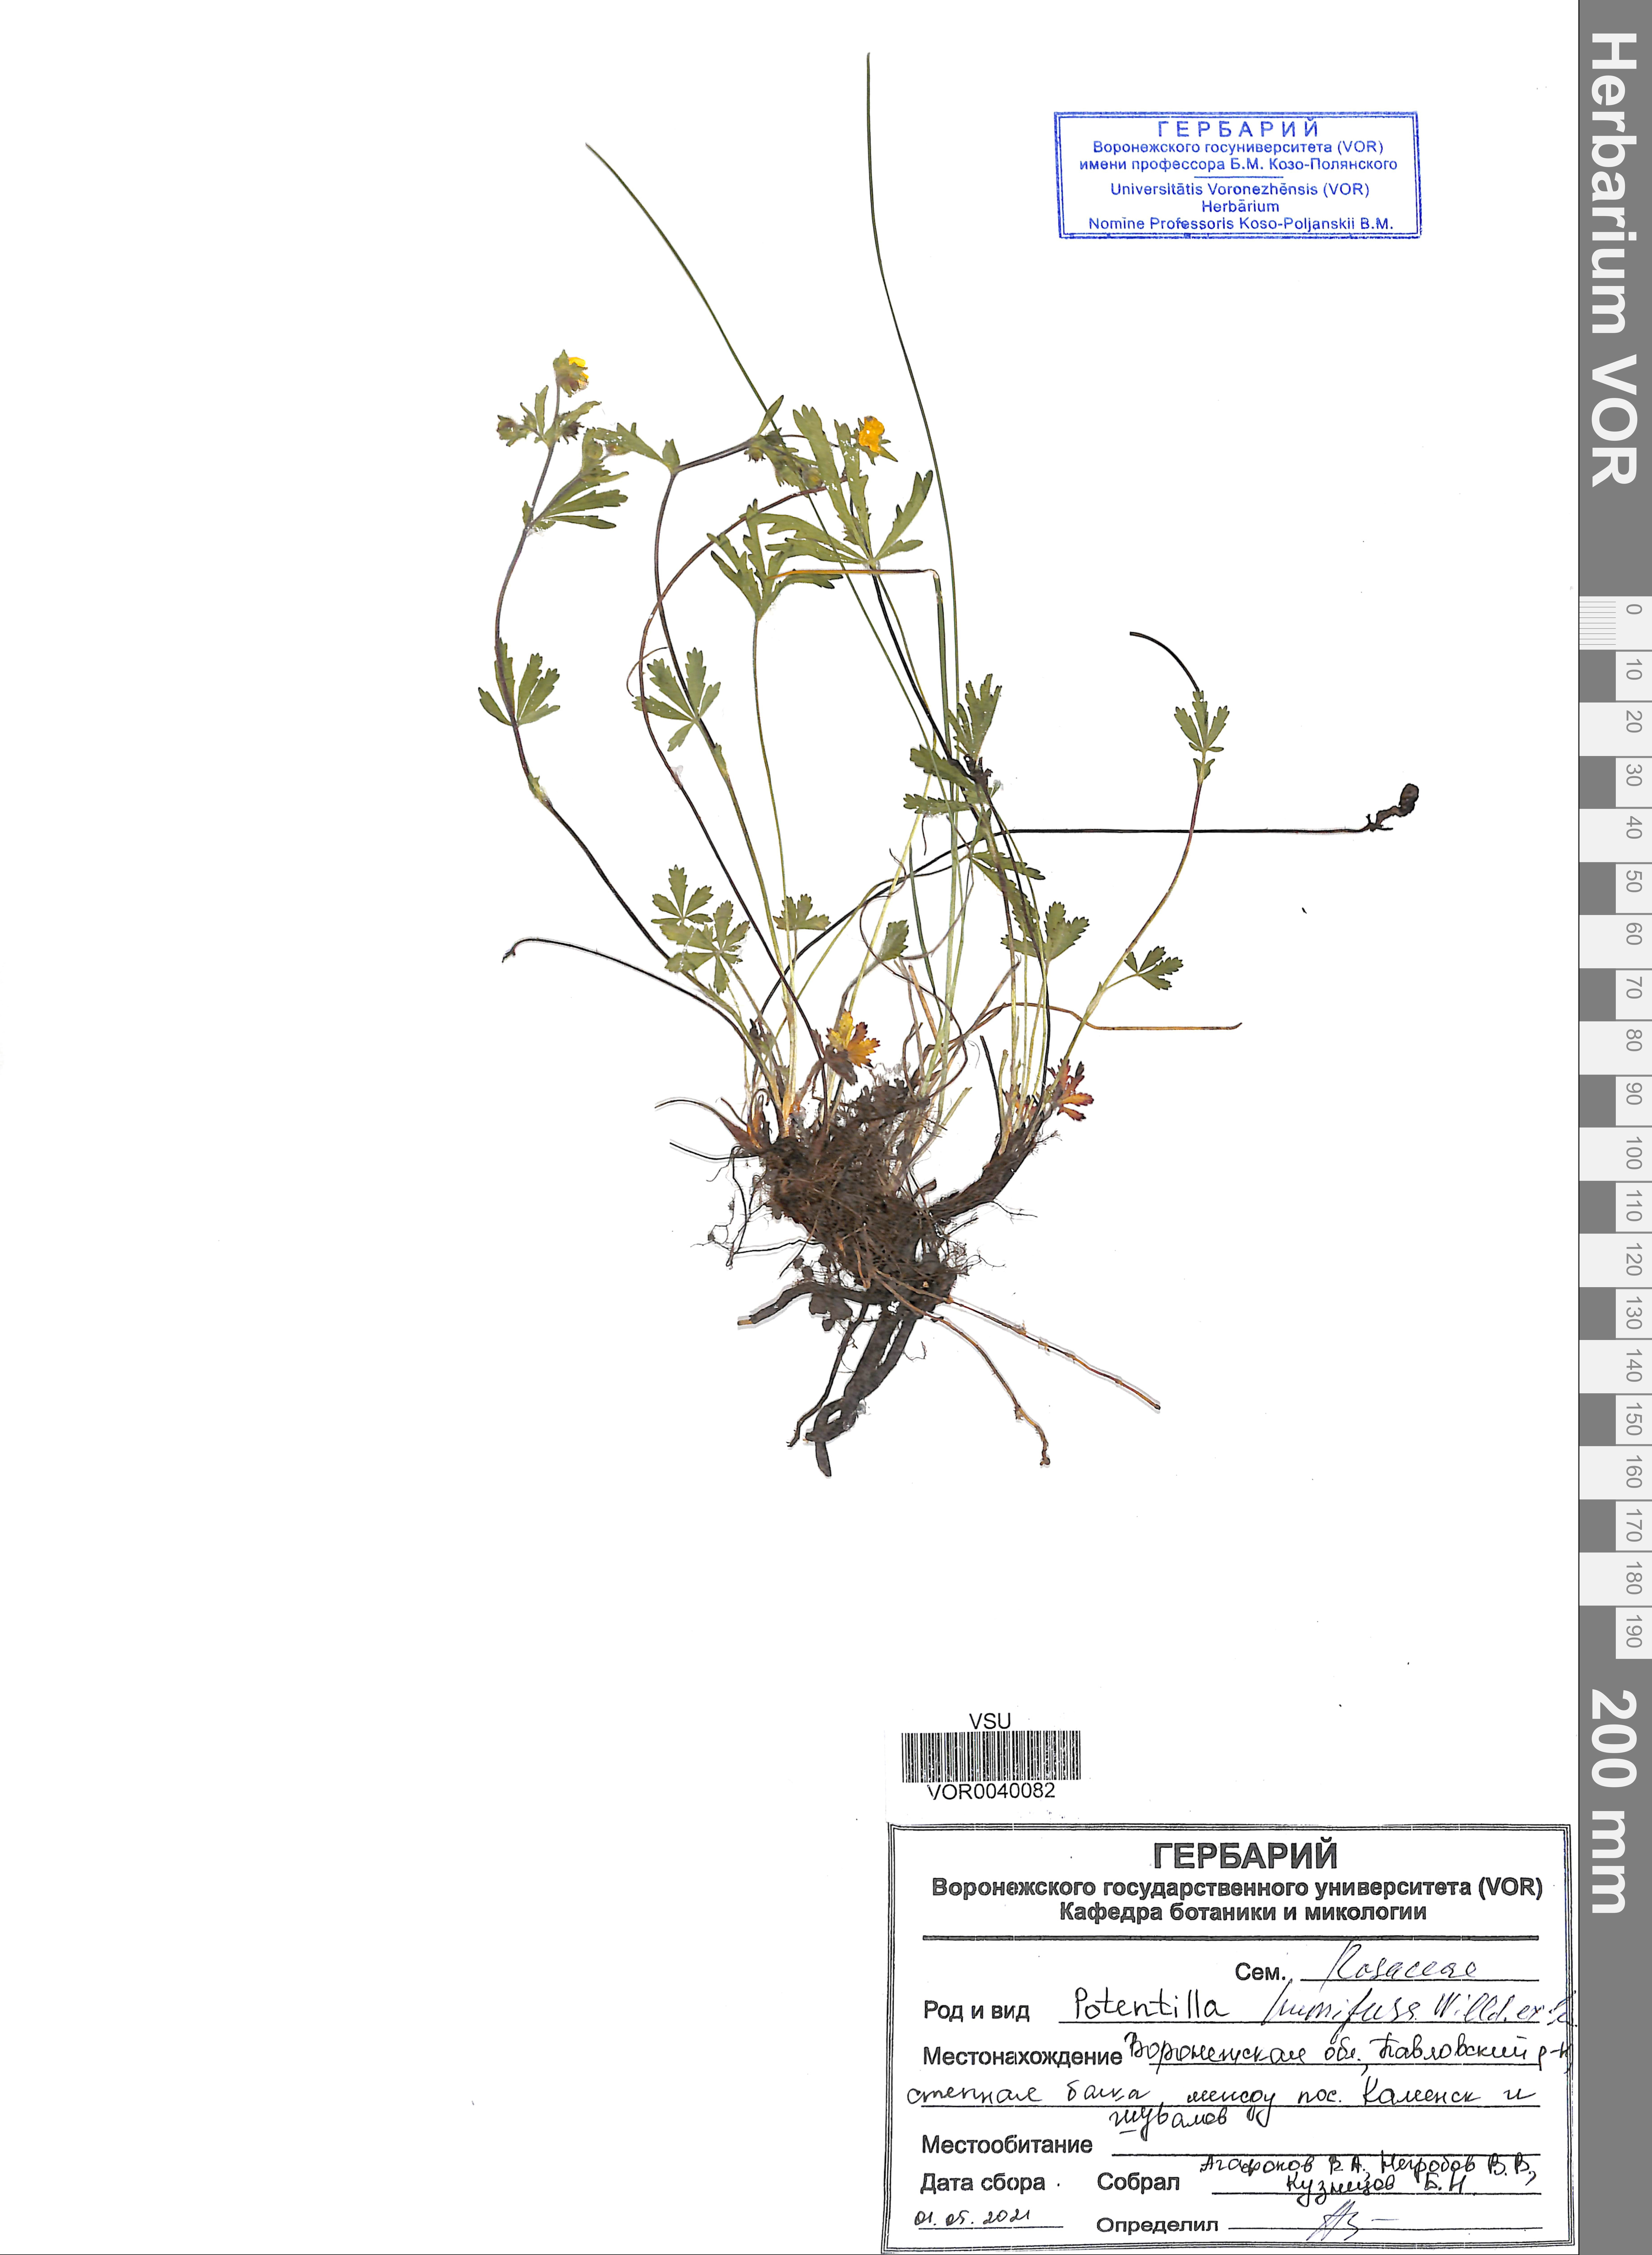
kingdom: Plantae
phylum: Tracheophyta
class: Magnoliopsida
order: Rosales
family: Rosaceae
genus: Potentilla
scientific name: Potentilla humifusa
